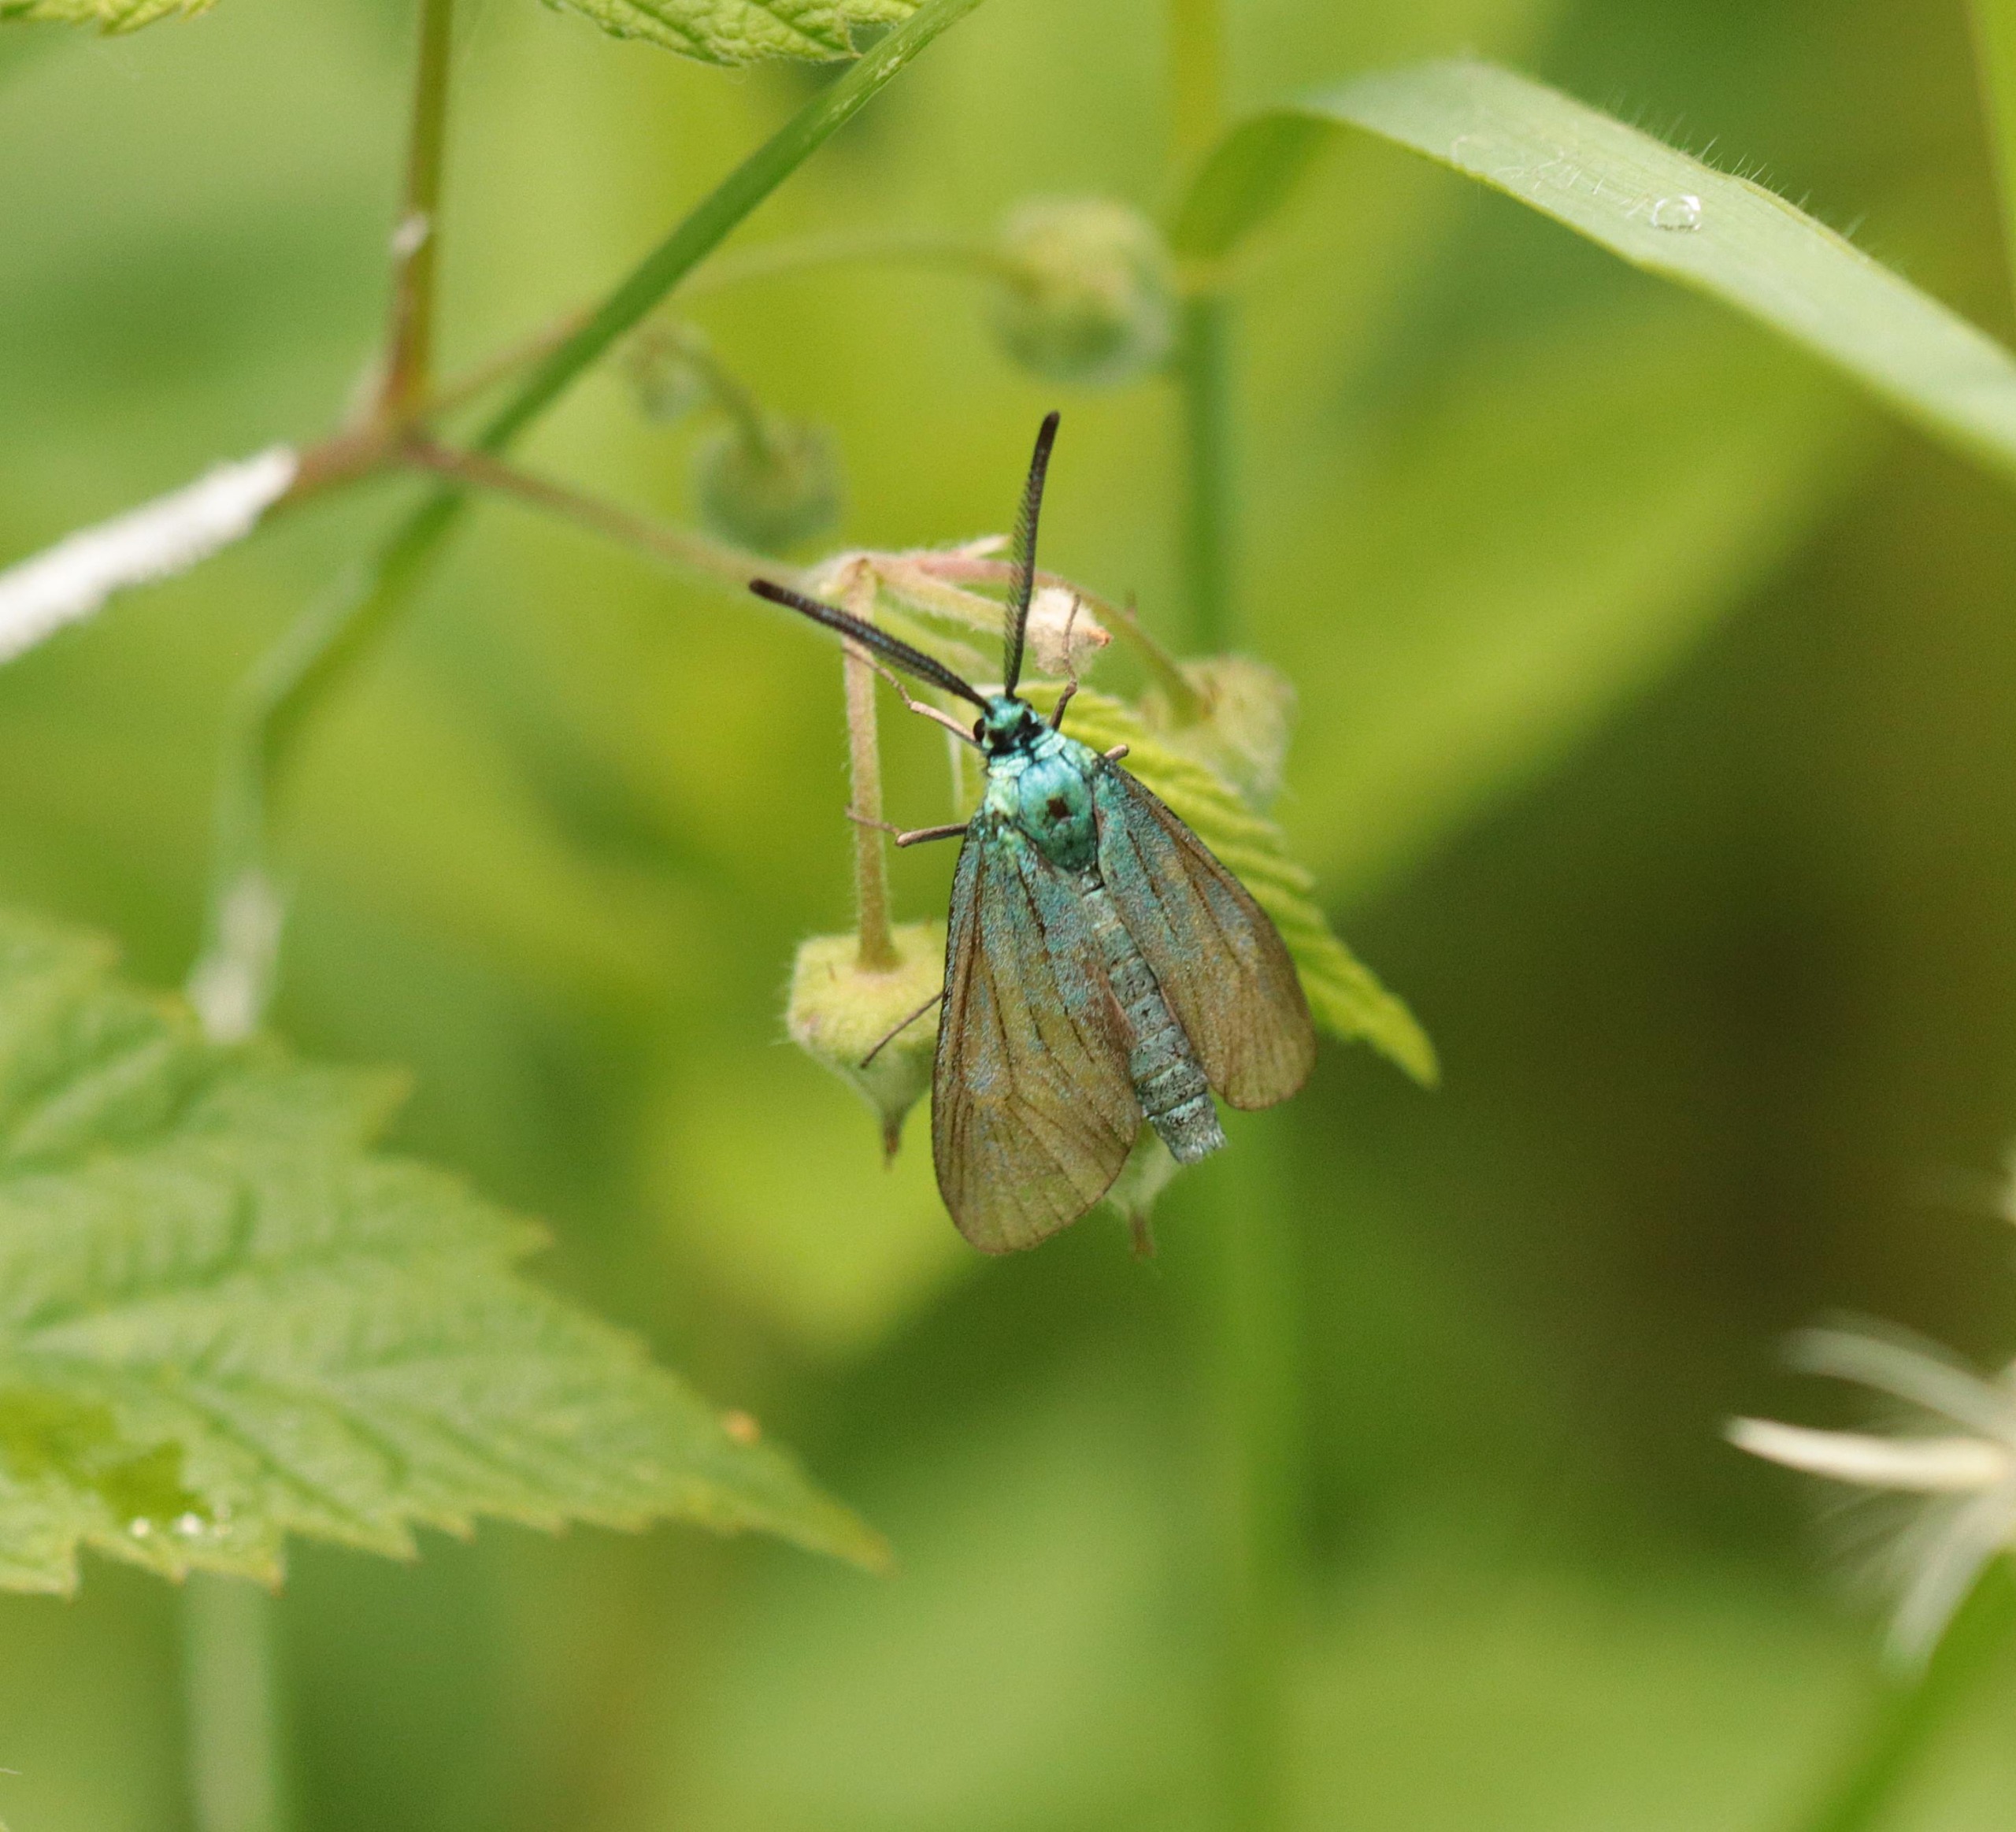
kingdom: Animalia
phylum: Arthropoda
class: Insecta
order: Lepidoptera
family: Zygaenidae
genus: Adscita
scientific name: Adscita statices
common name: Metalvinge
